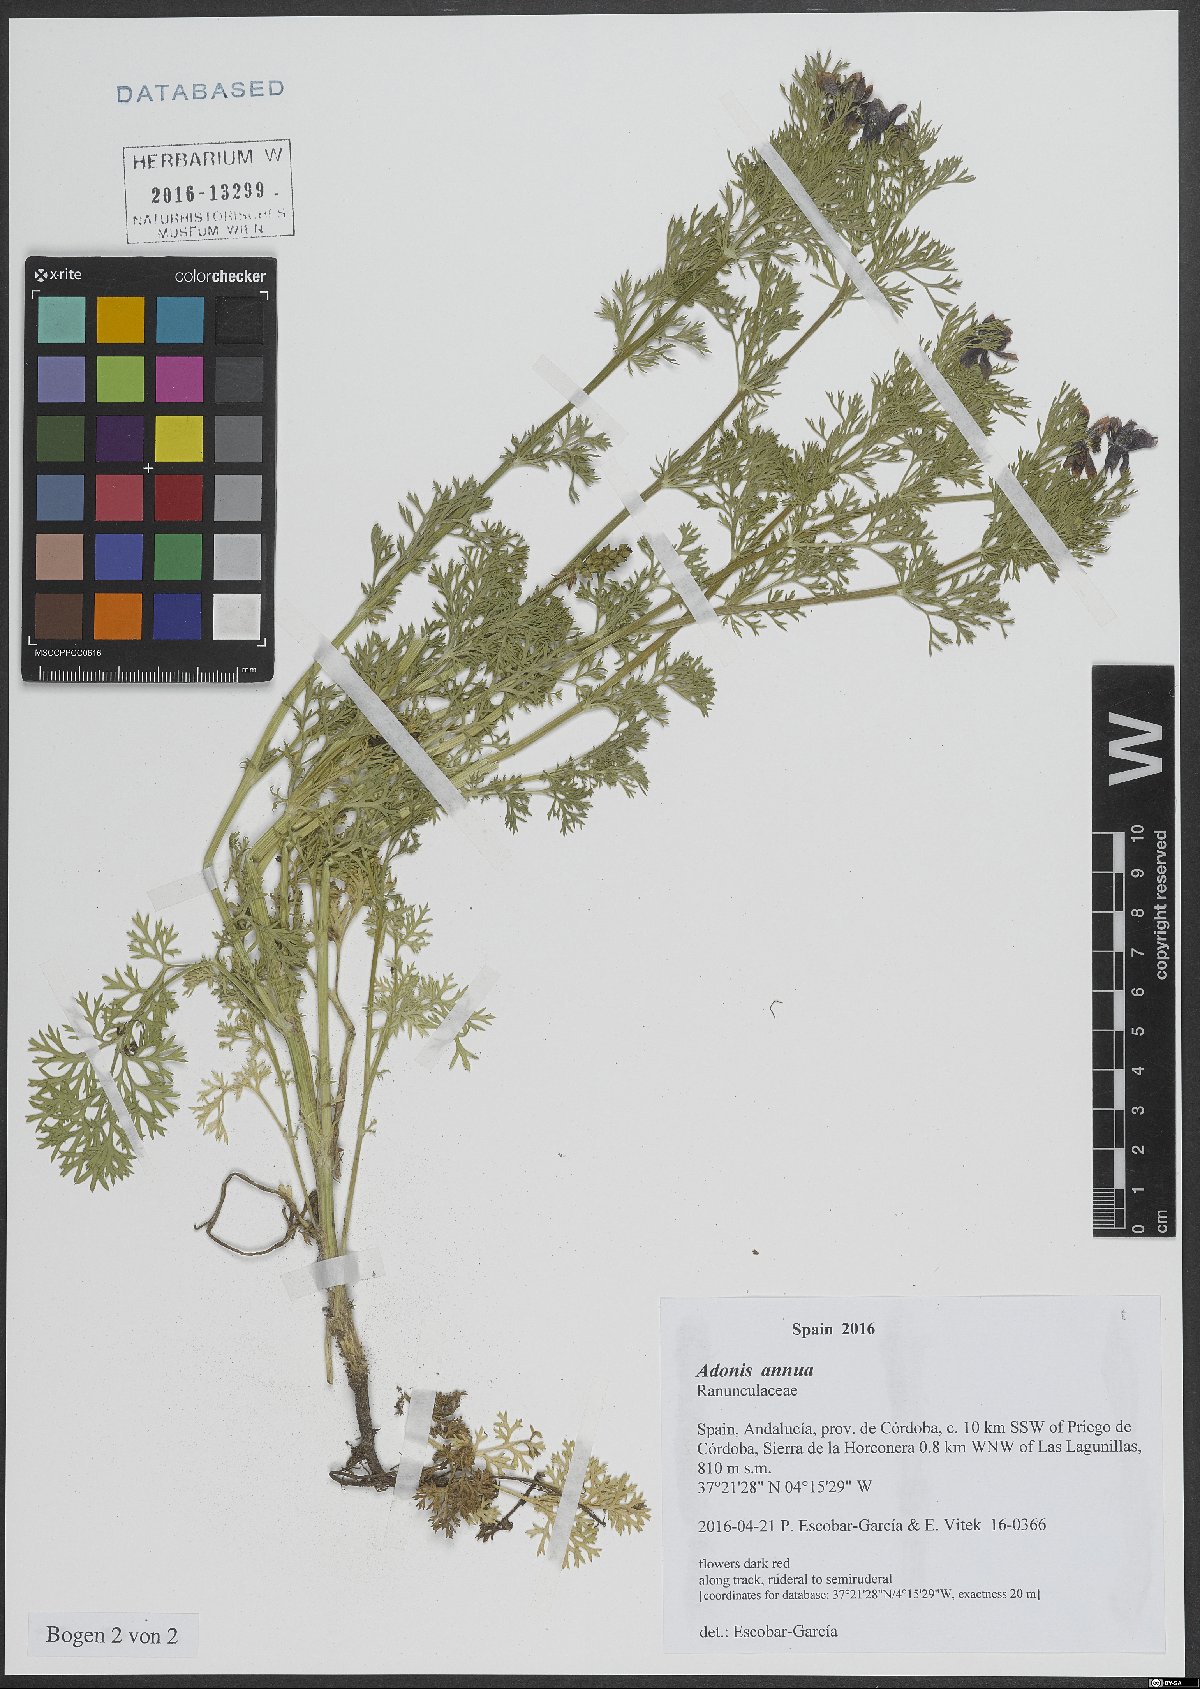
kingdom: Plantae
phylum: Tracheophyta
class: Magnoliopsida
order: Ranunculales
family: Ranunculaceae
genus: Adonis
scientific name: Adonis annua
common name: Pheasant's-eye
